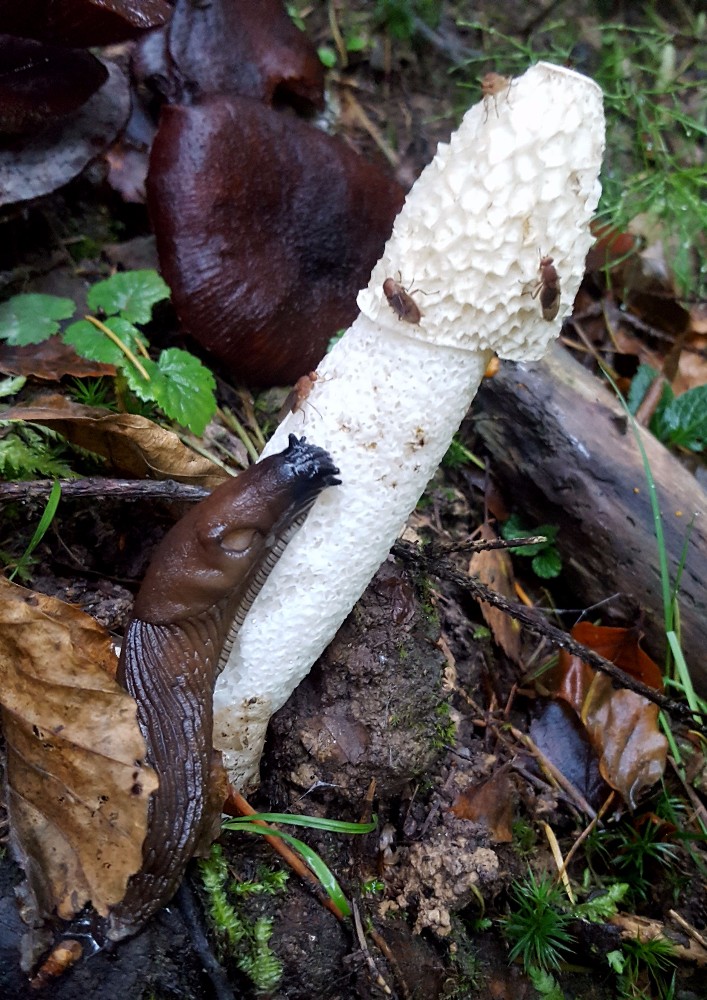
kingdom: Fungi
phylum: Basidiomycota
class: Agaricomycetes
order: Phallales
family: Phallaceae
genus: Phallus
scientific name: Phallus impudicus
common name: almindelig stinksvamp
